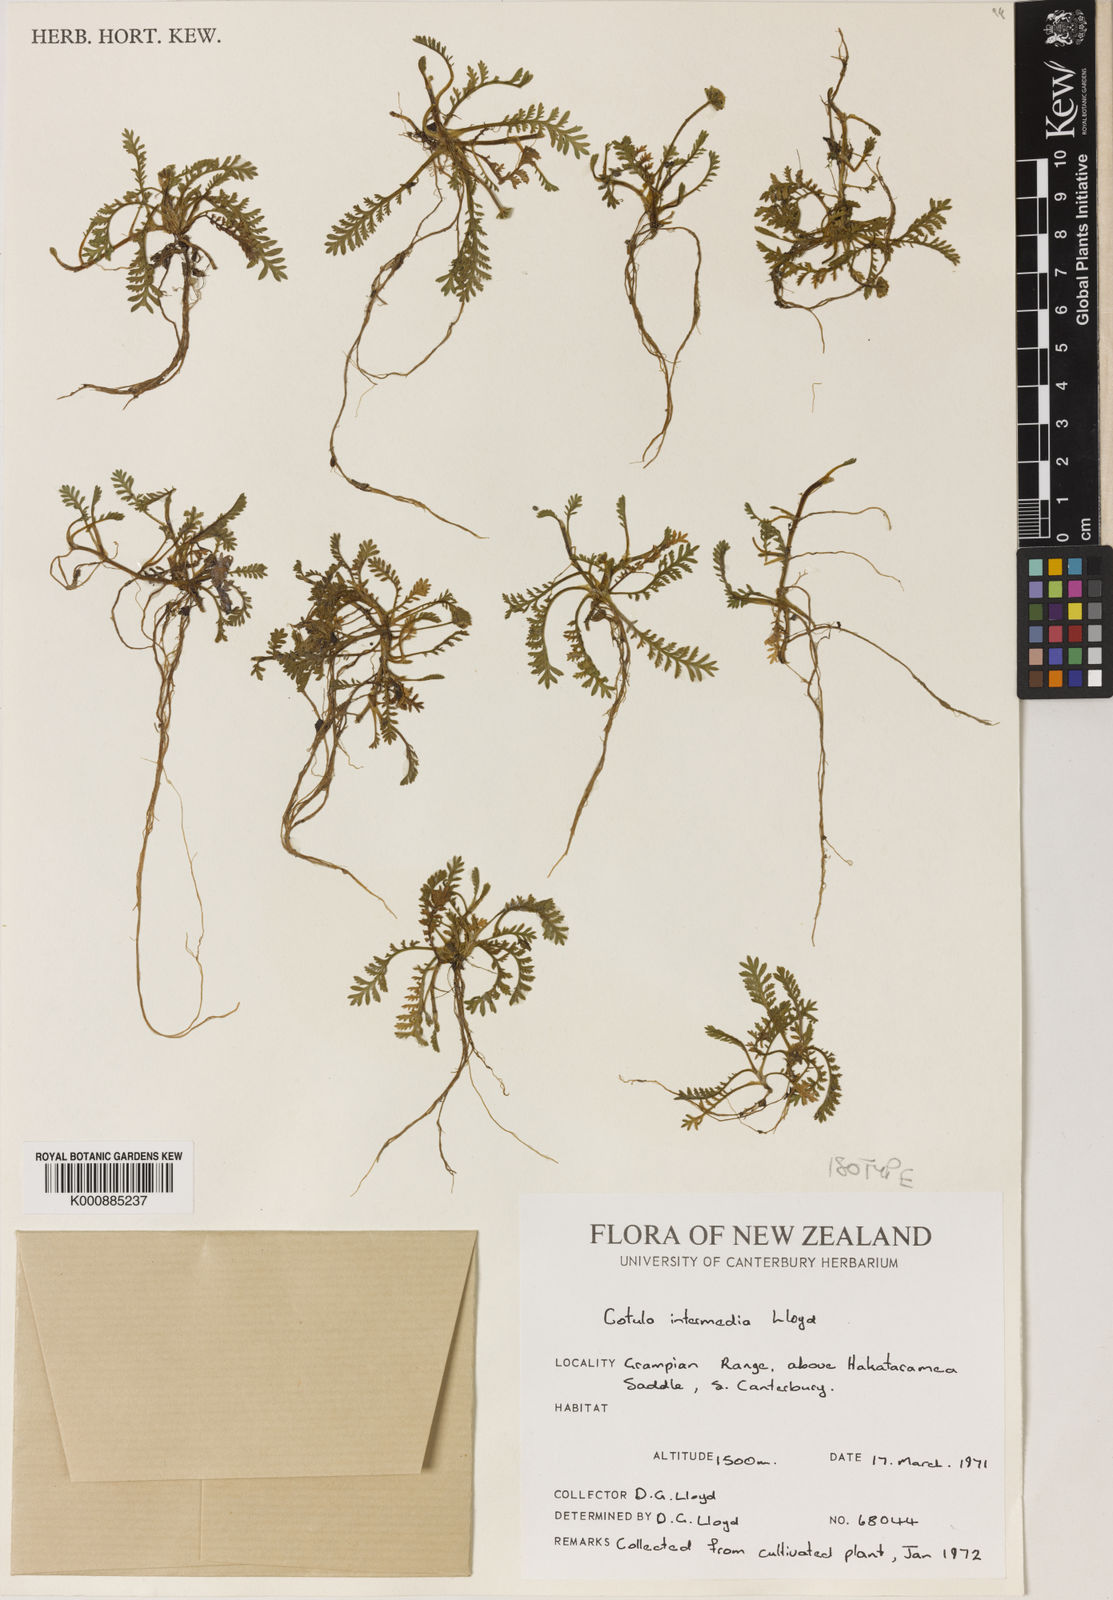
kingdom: Plantae
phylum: Tracheophyta
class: Magnoliopsida
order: Asterales
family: Asteraceae
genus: Leptinella
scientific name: Leptinella
